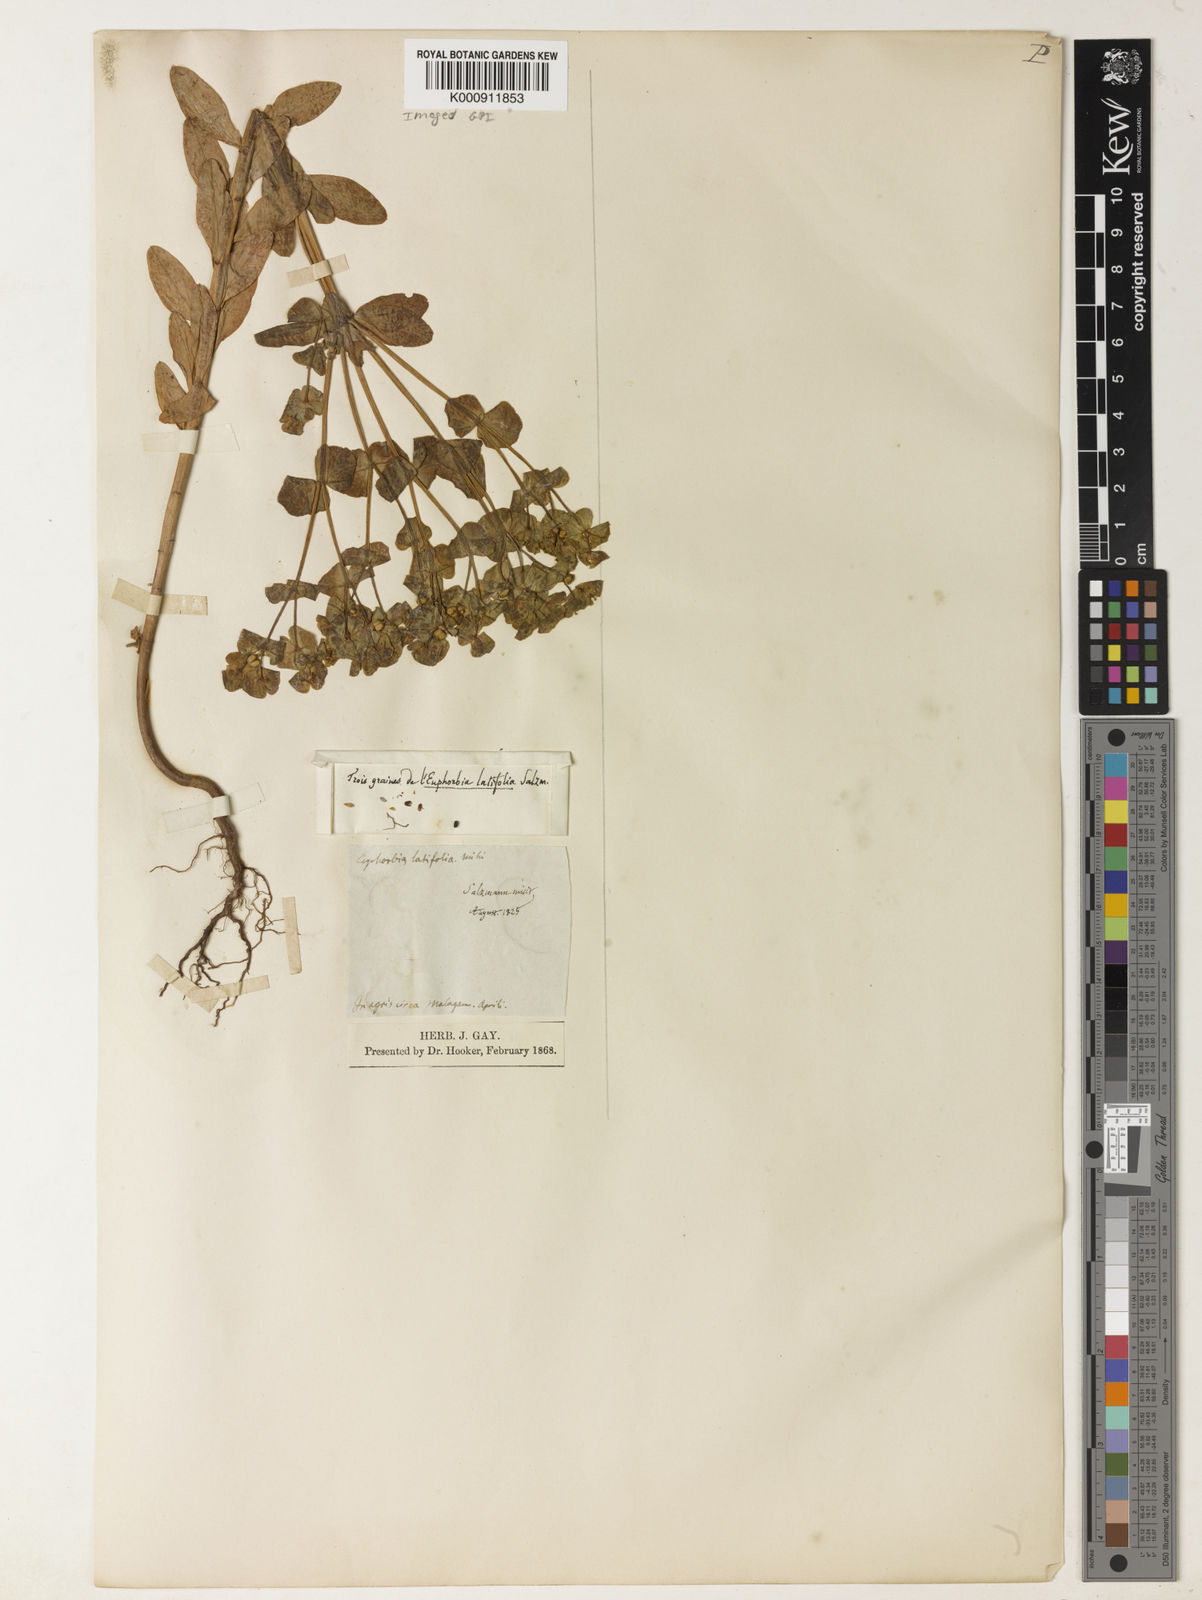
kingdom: Plantae
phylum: Tracheophyta
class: Magnoliopsida
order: Malpighiales
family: Euphorbiaceae
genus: Euphorbia
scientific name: Euphorbia medicaginea
